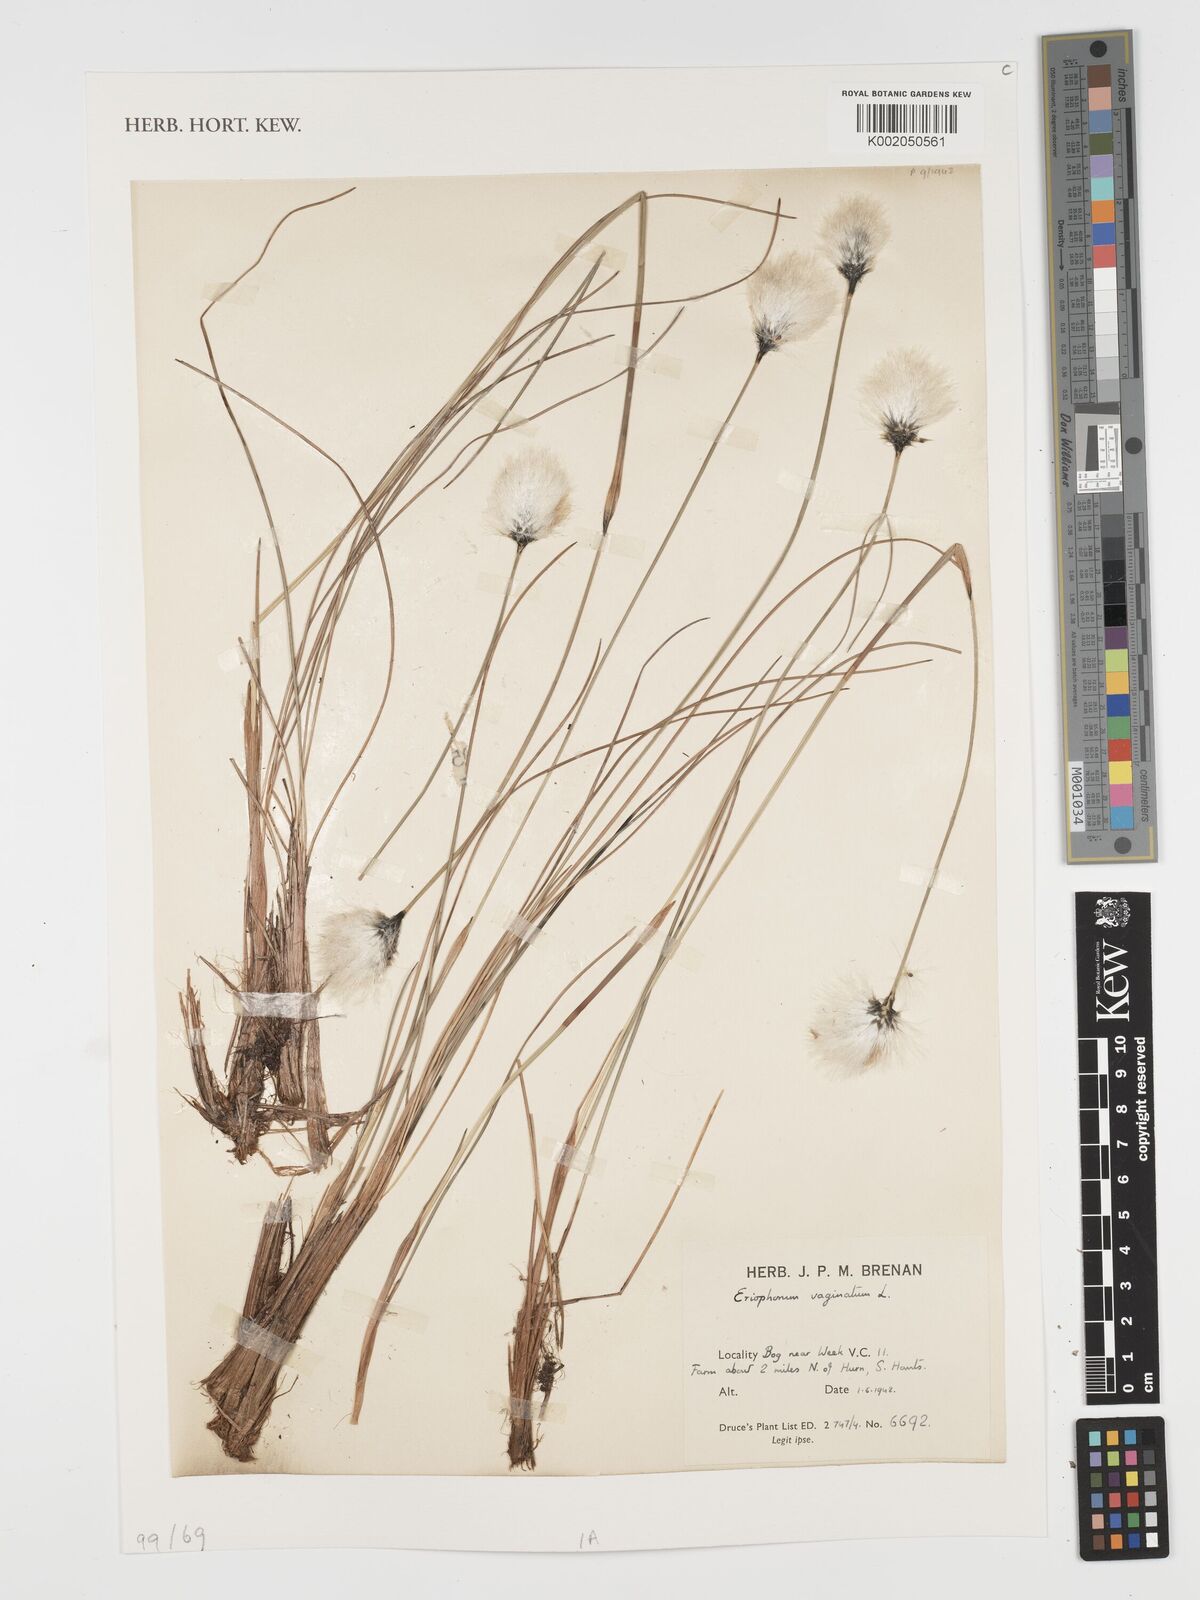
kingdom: Plantae
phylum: Tracheophyta
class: Liliopsida
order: Poales
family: Cyperaceae
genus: Eriophorum
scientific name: Eriophorum vaginatum
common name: Hare's-tail cottongrass
